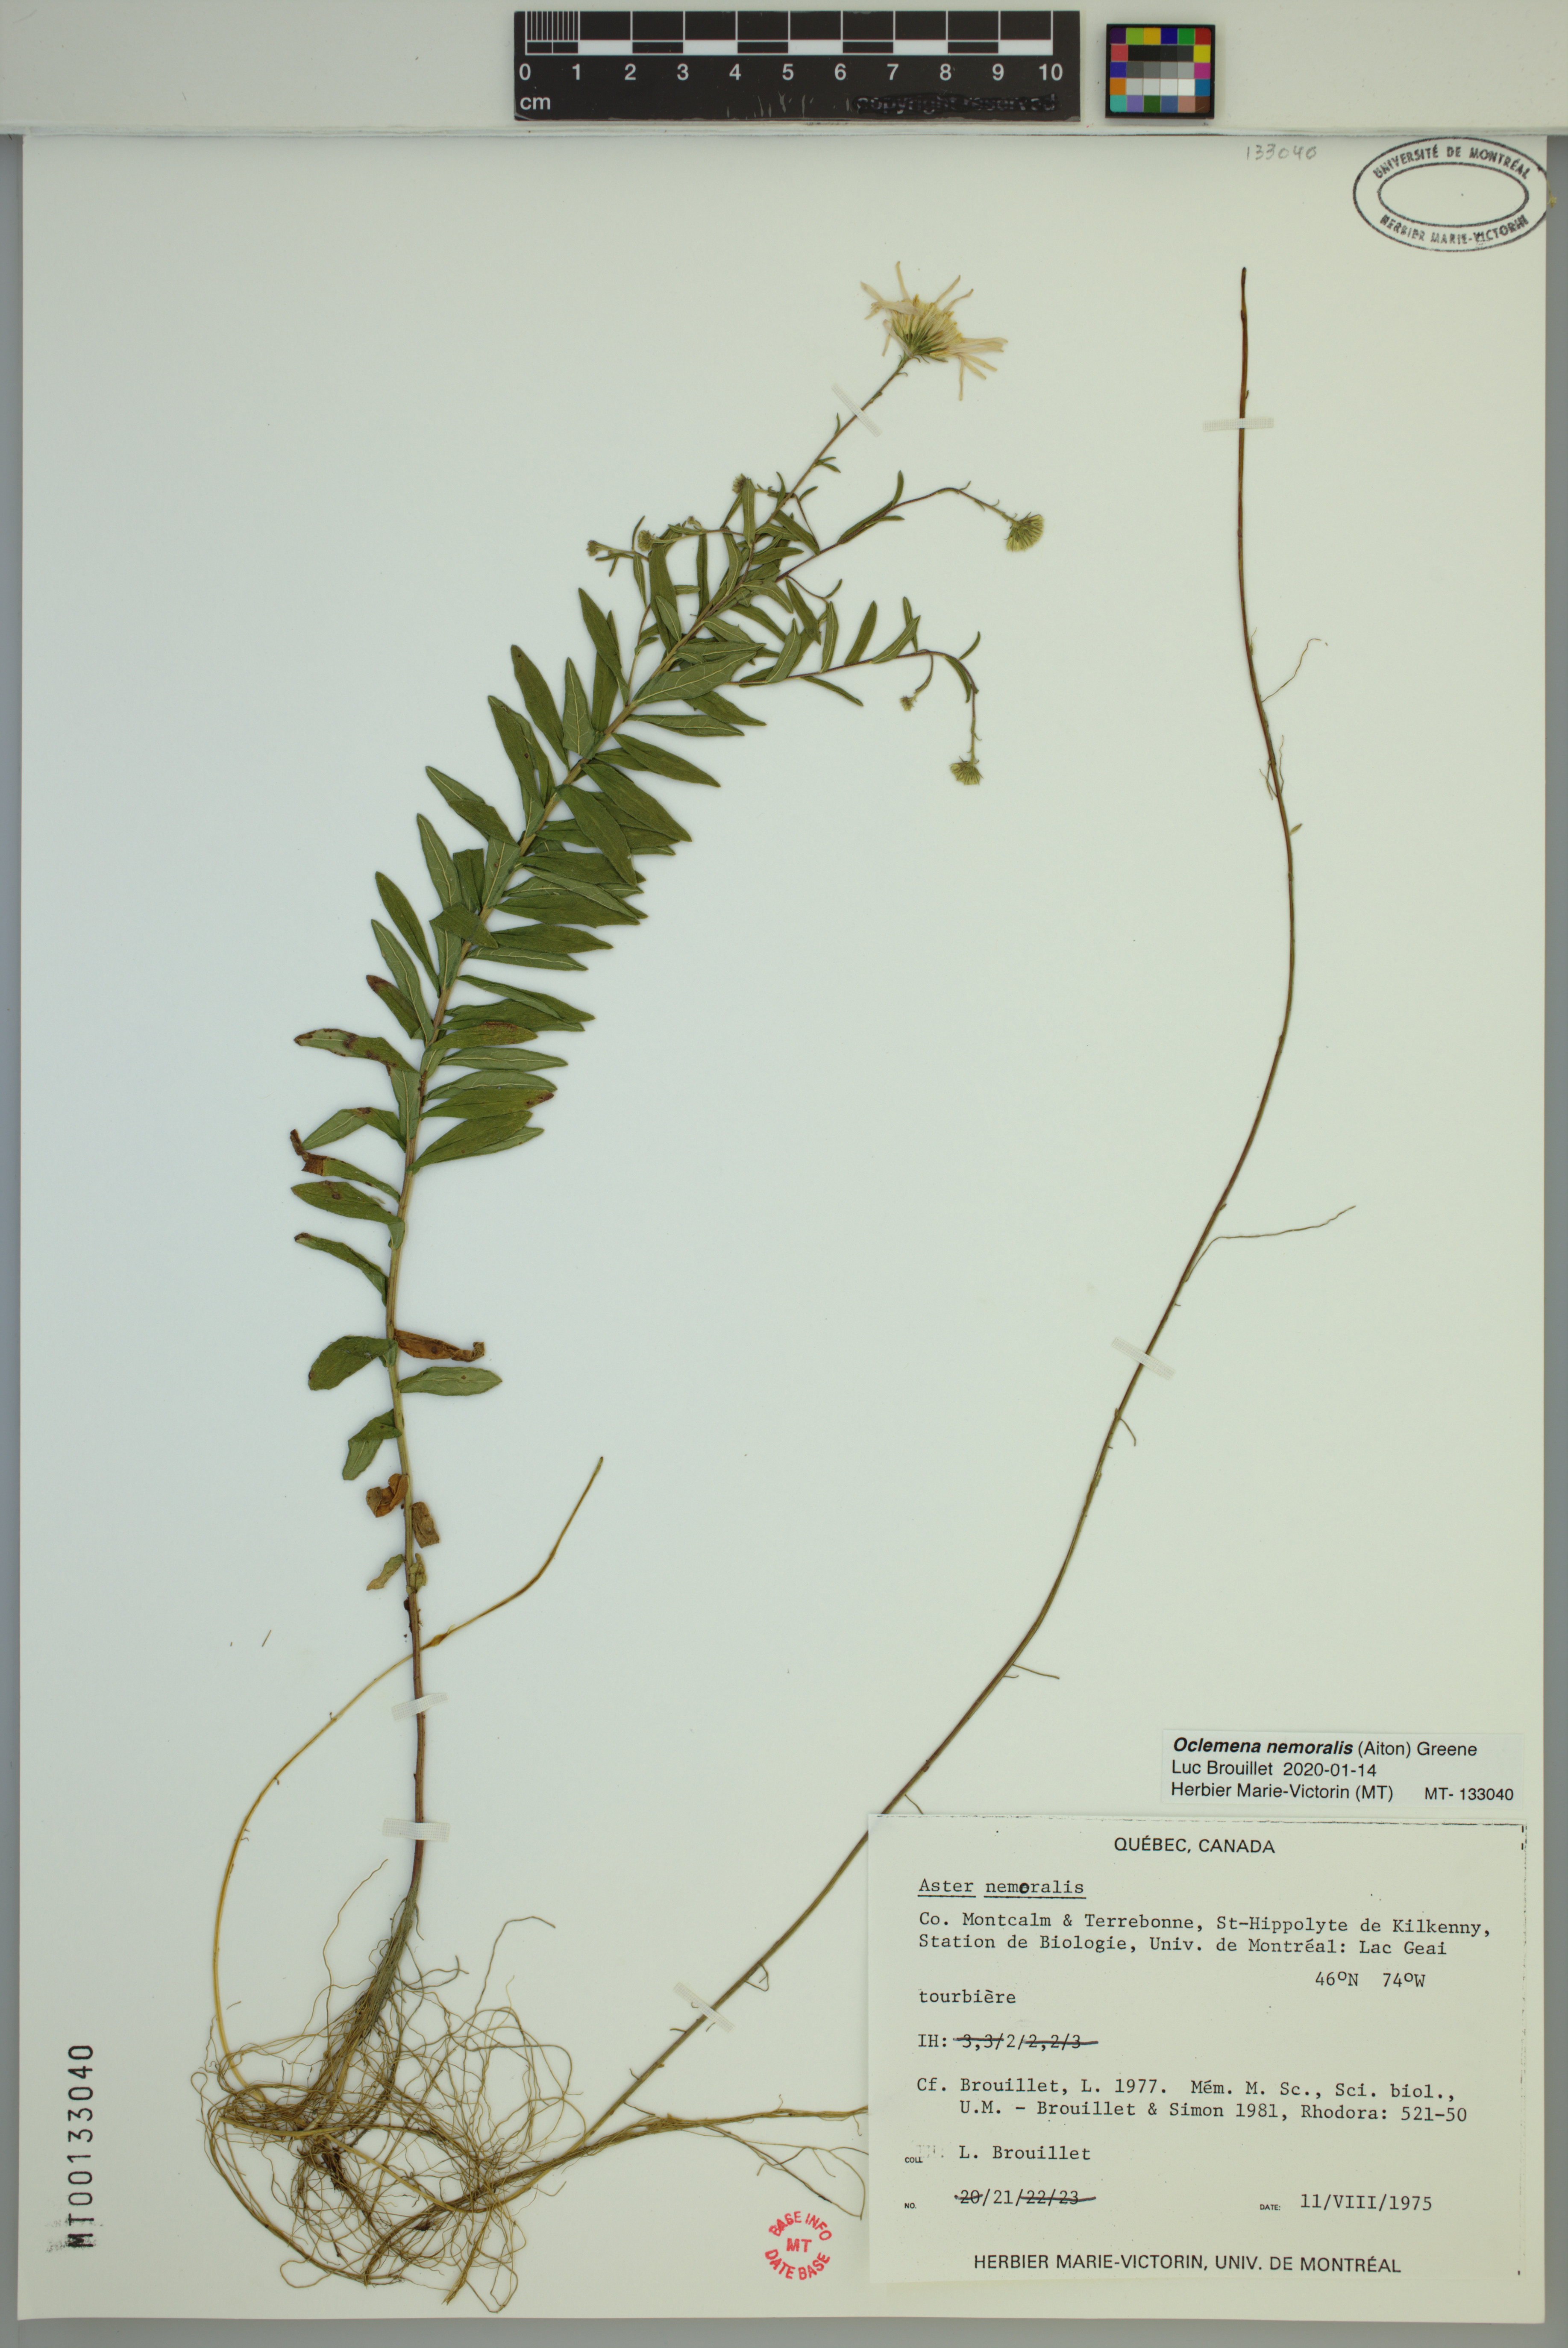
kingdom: Plantae
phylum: Tracheophyta
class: Magnoliopsida
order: Asterales
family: Asteraceae
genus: Oclemena
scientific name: Oclemena nemoralis
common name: Bog aster
